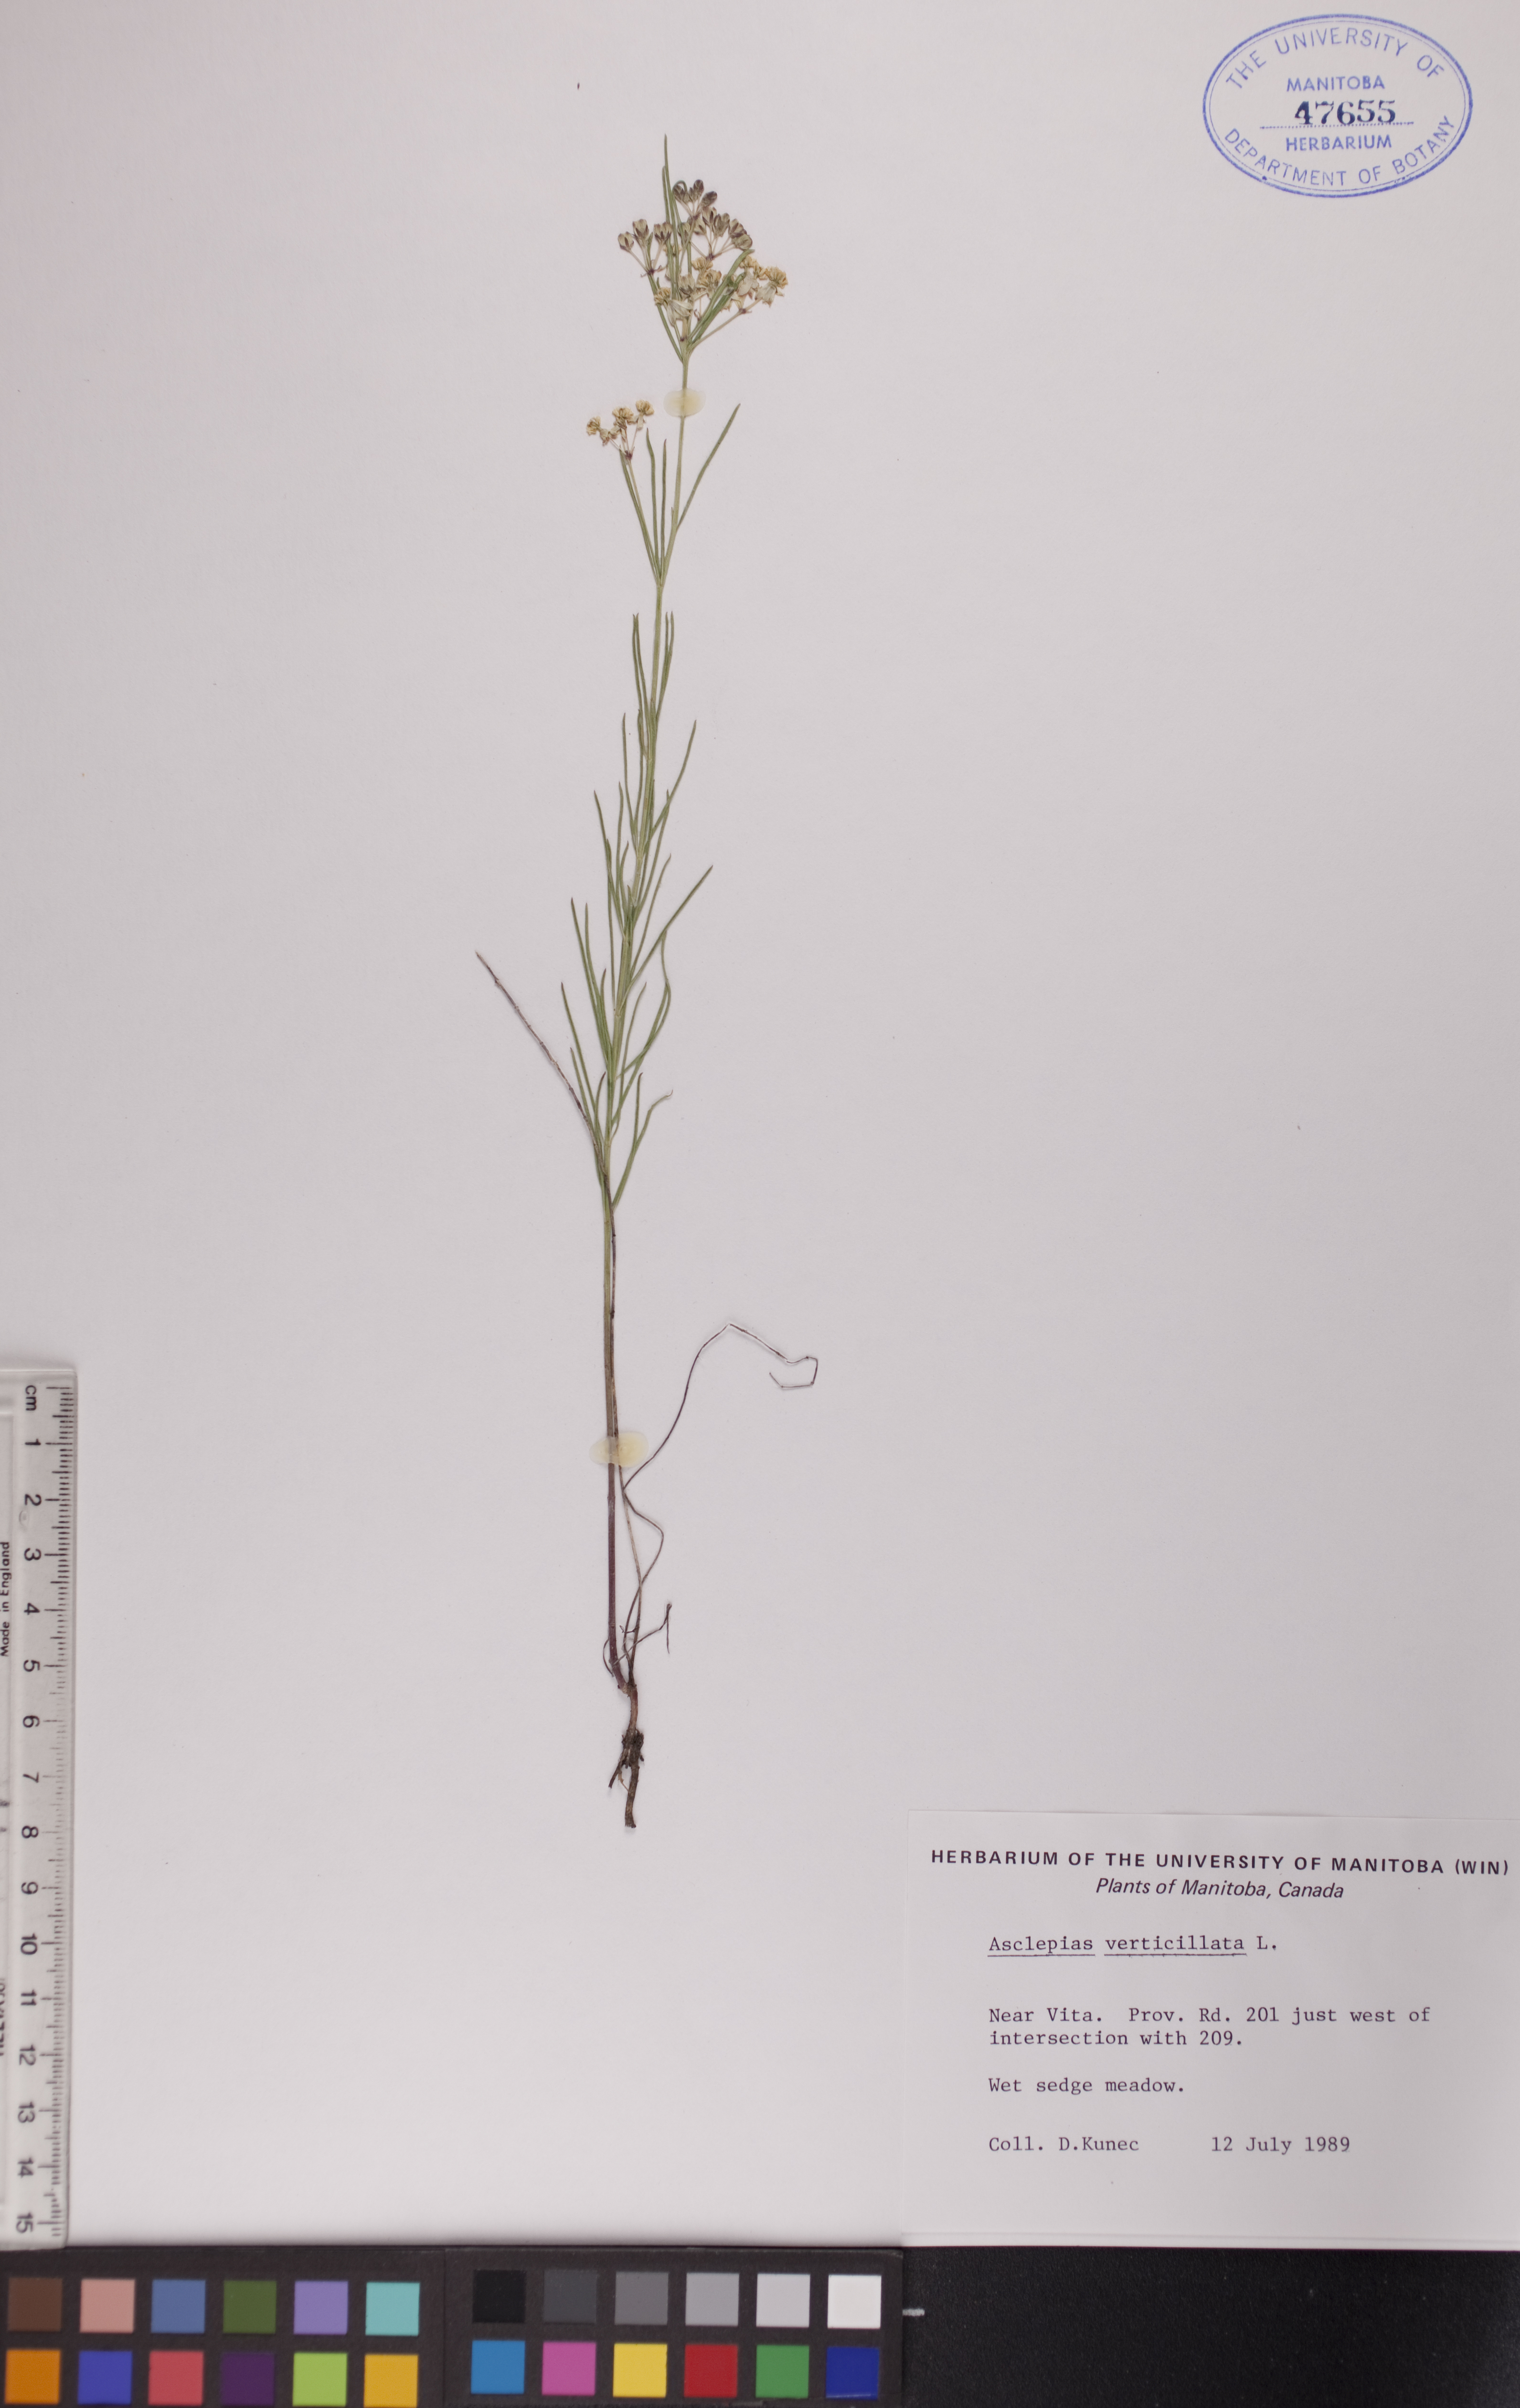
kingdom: Plantae
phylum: Tracheophyta
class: Magnoliopsida
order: Gentianales
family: Apocynaceae
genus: Asclepias
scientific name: Asclepias verticillata
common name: Eastern whorled milkweed
